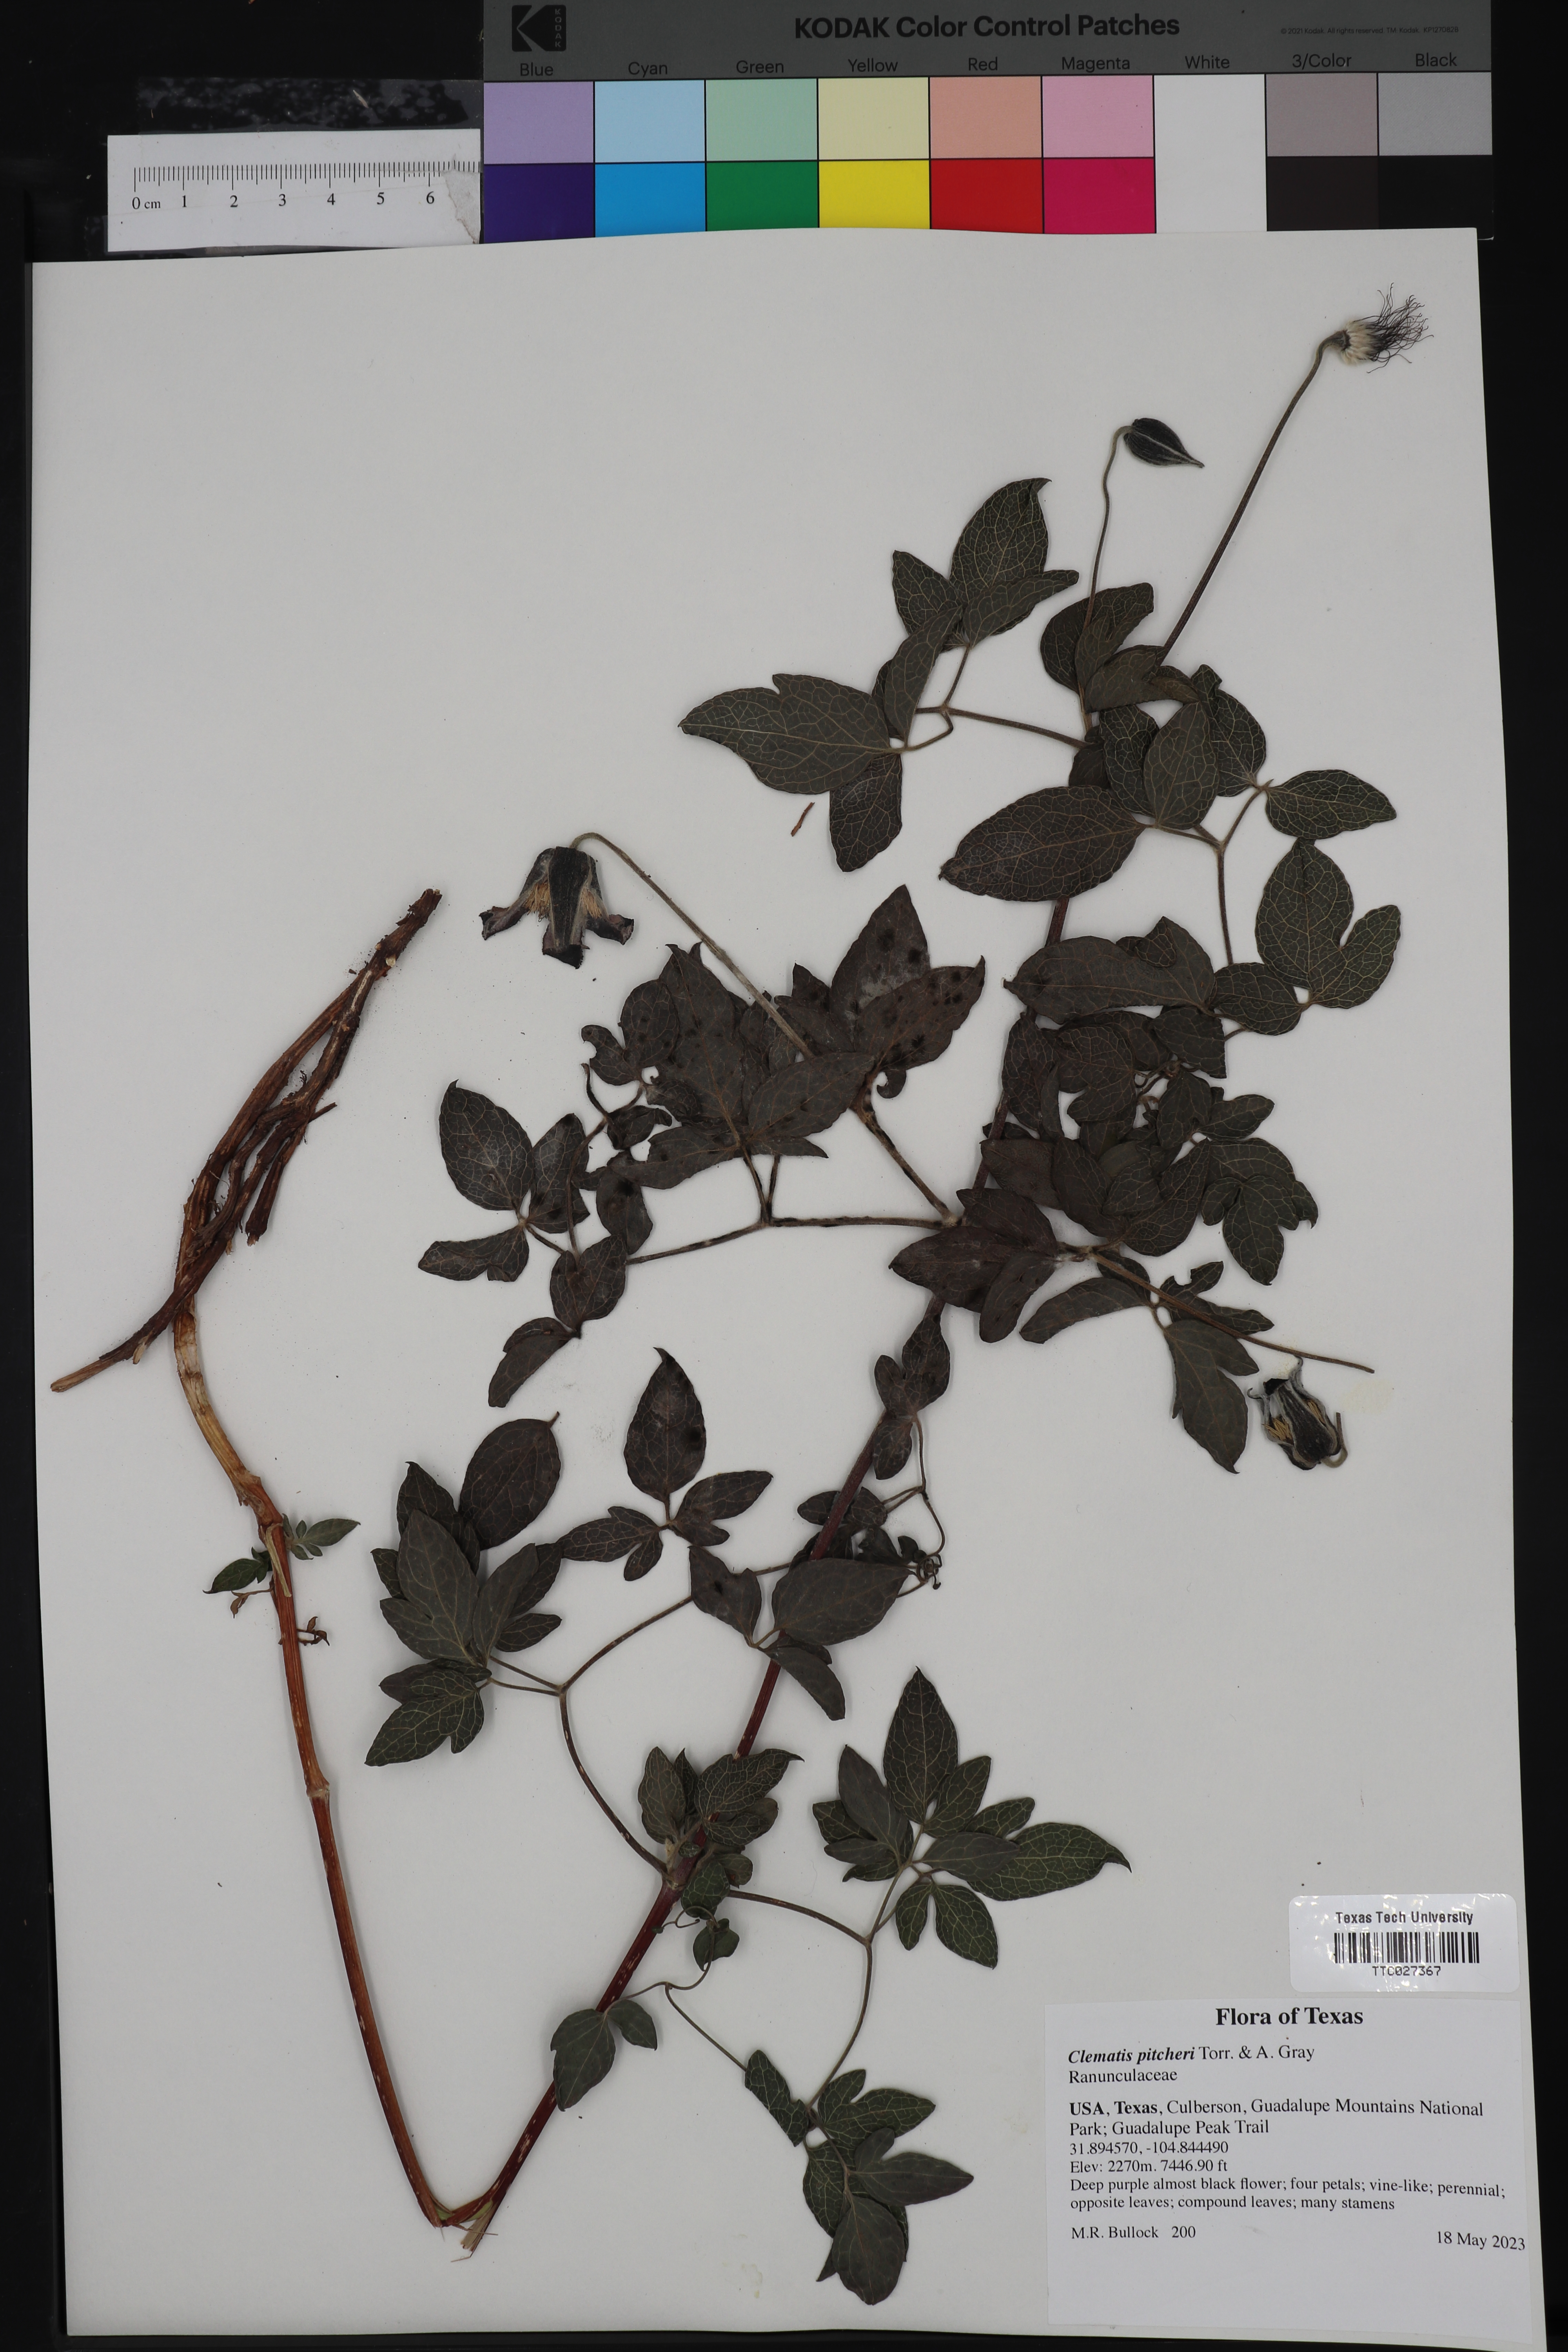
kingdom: Plantae
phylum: Tracheophyta
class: Magnoliopsida
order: Ranunculales
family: Ranunculaceae
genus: Clematis
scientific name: Clematis pitcheri
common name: Bellflower clematis
